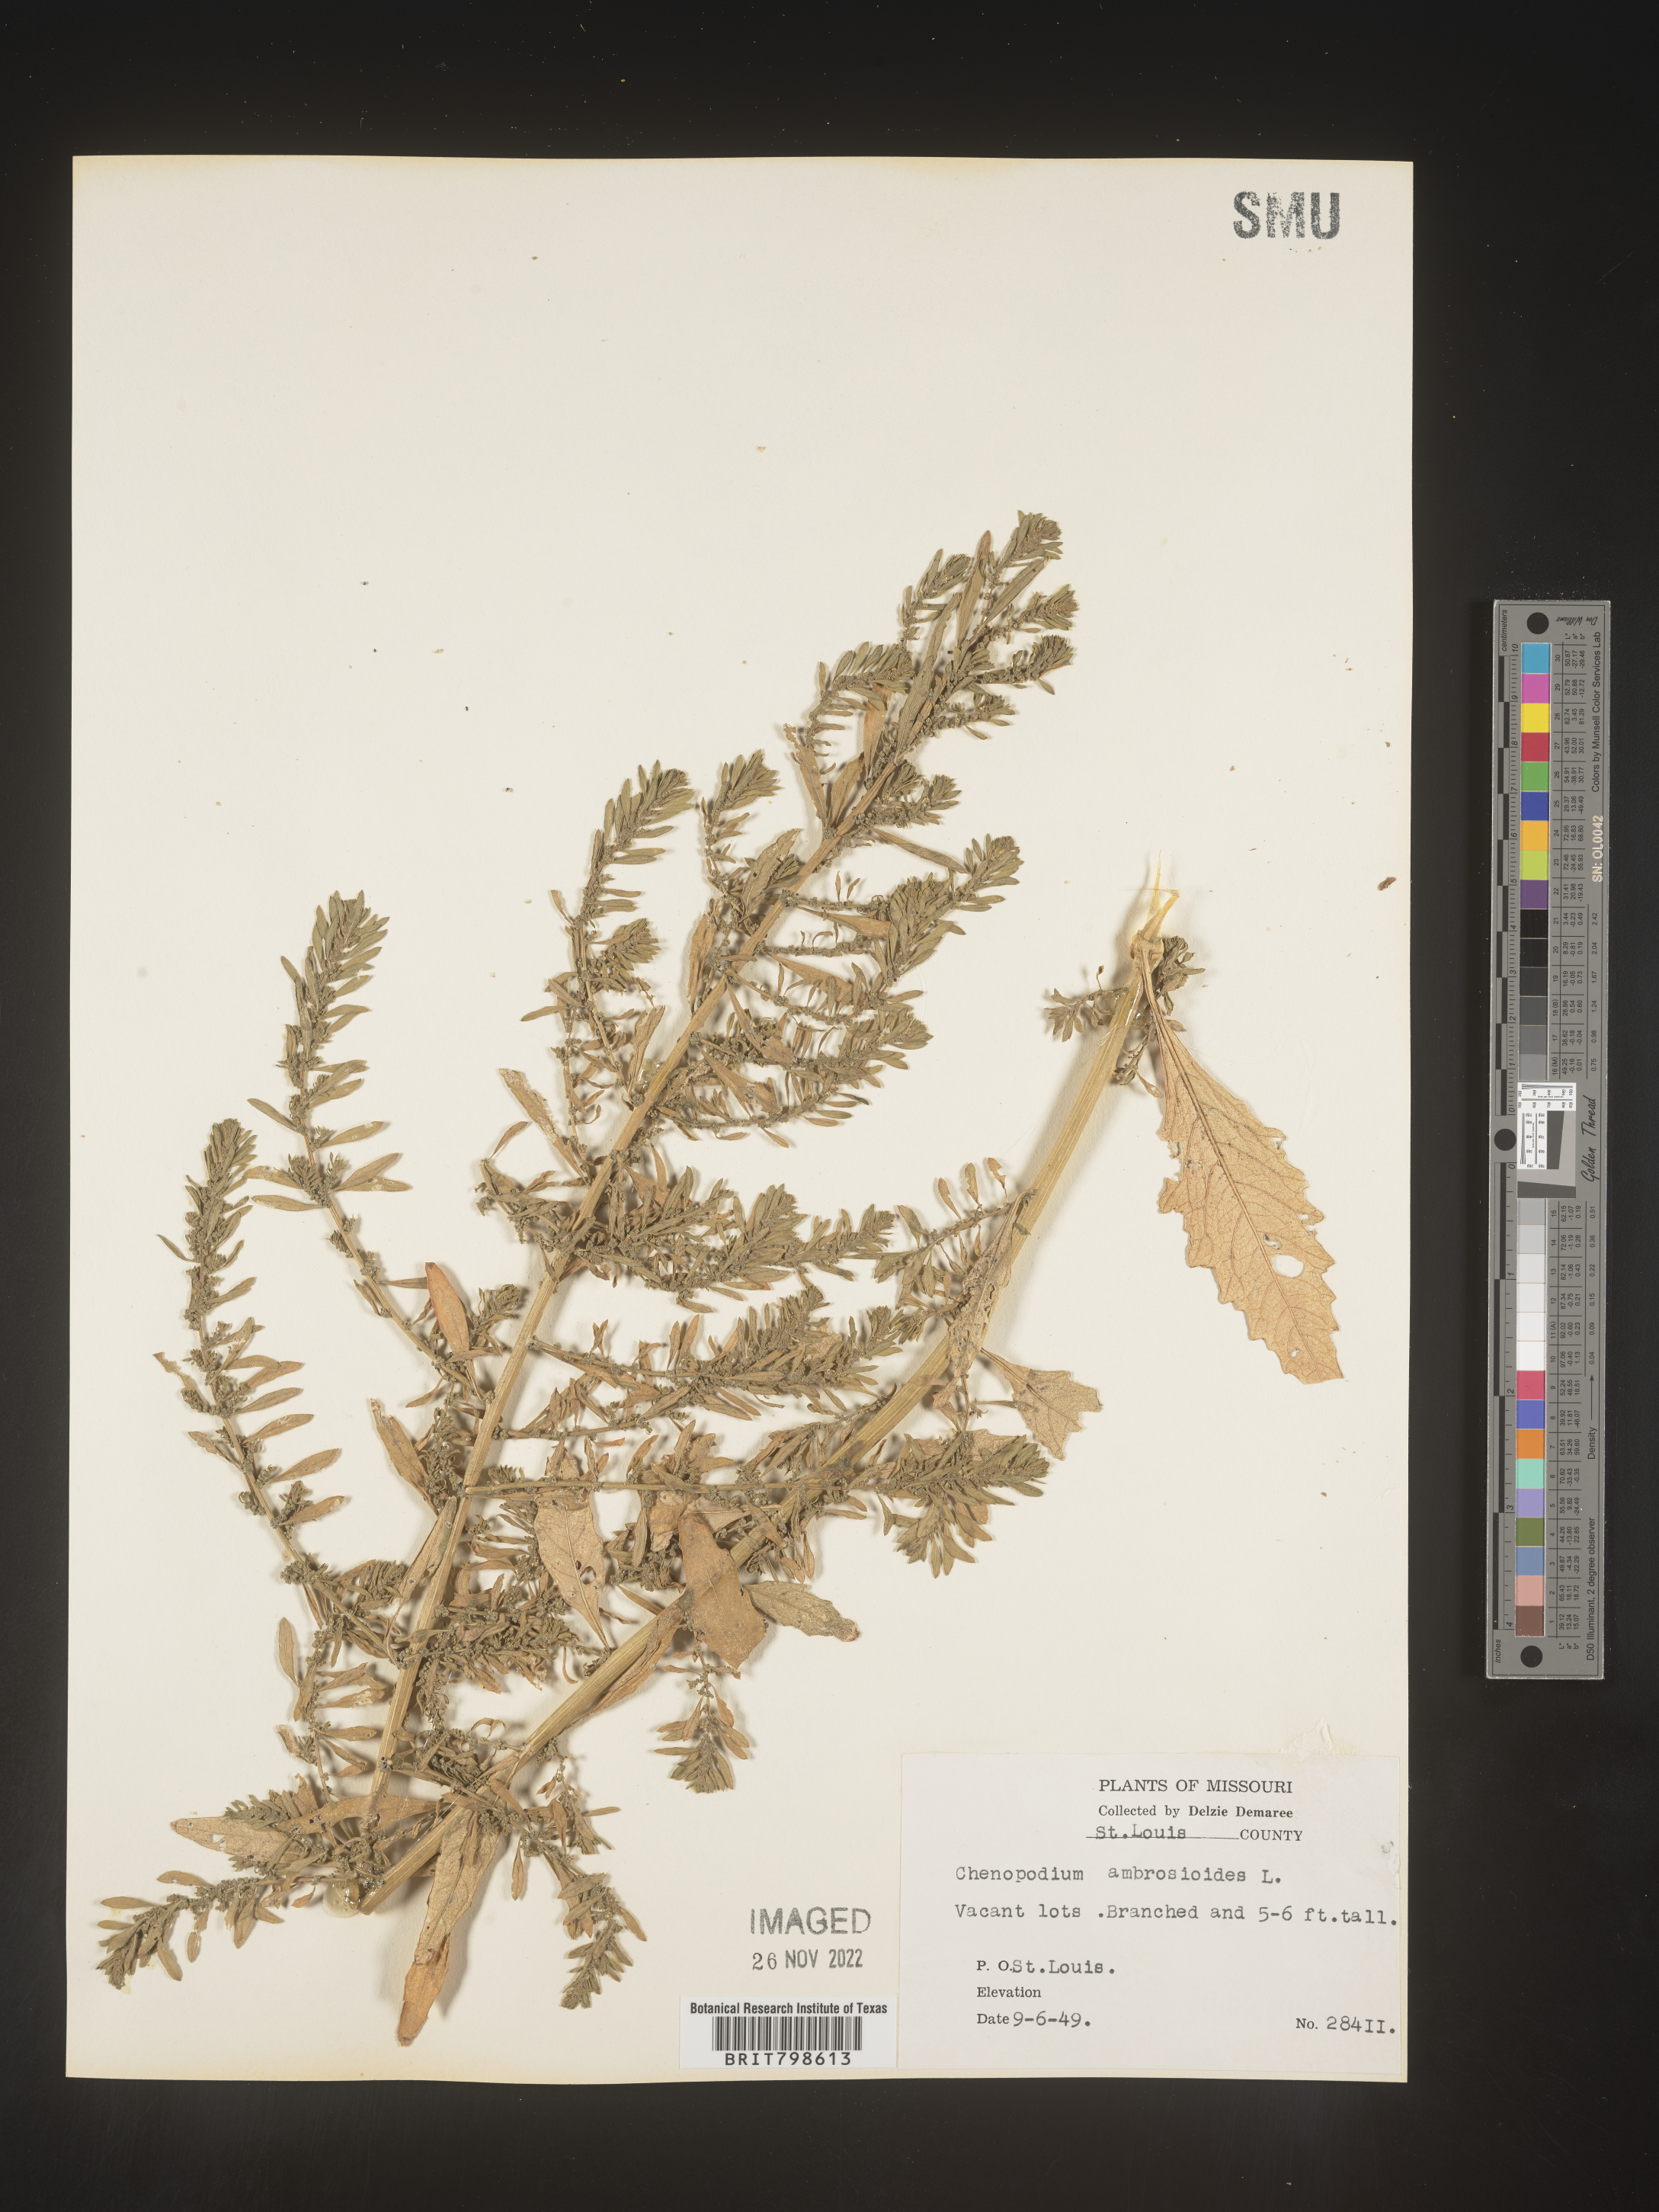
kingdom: Plantae
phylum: Tracheophyta
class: Magnoliopsida
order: Caryophyllales
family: Amaranthaceae
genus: Dysphania
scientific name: Dysphania ambrosioides
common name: Wormseed
